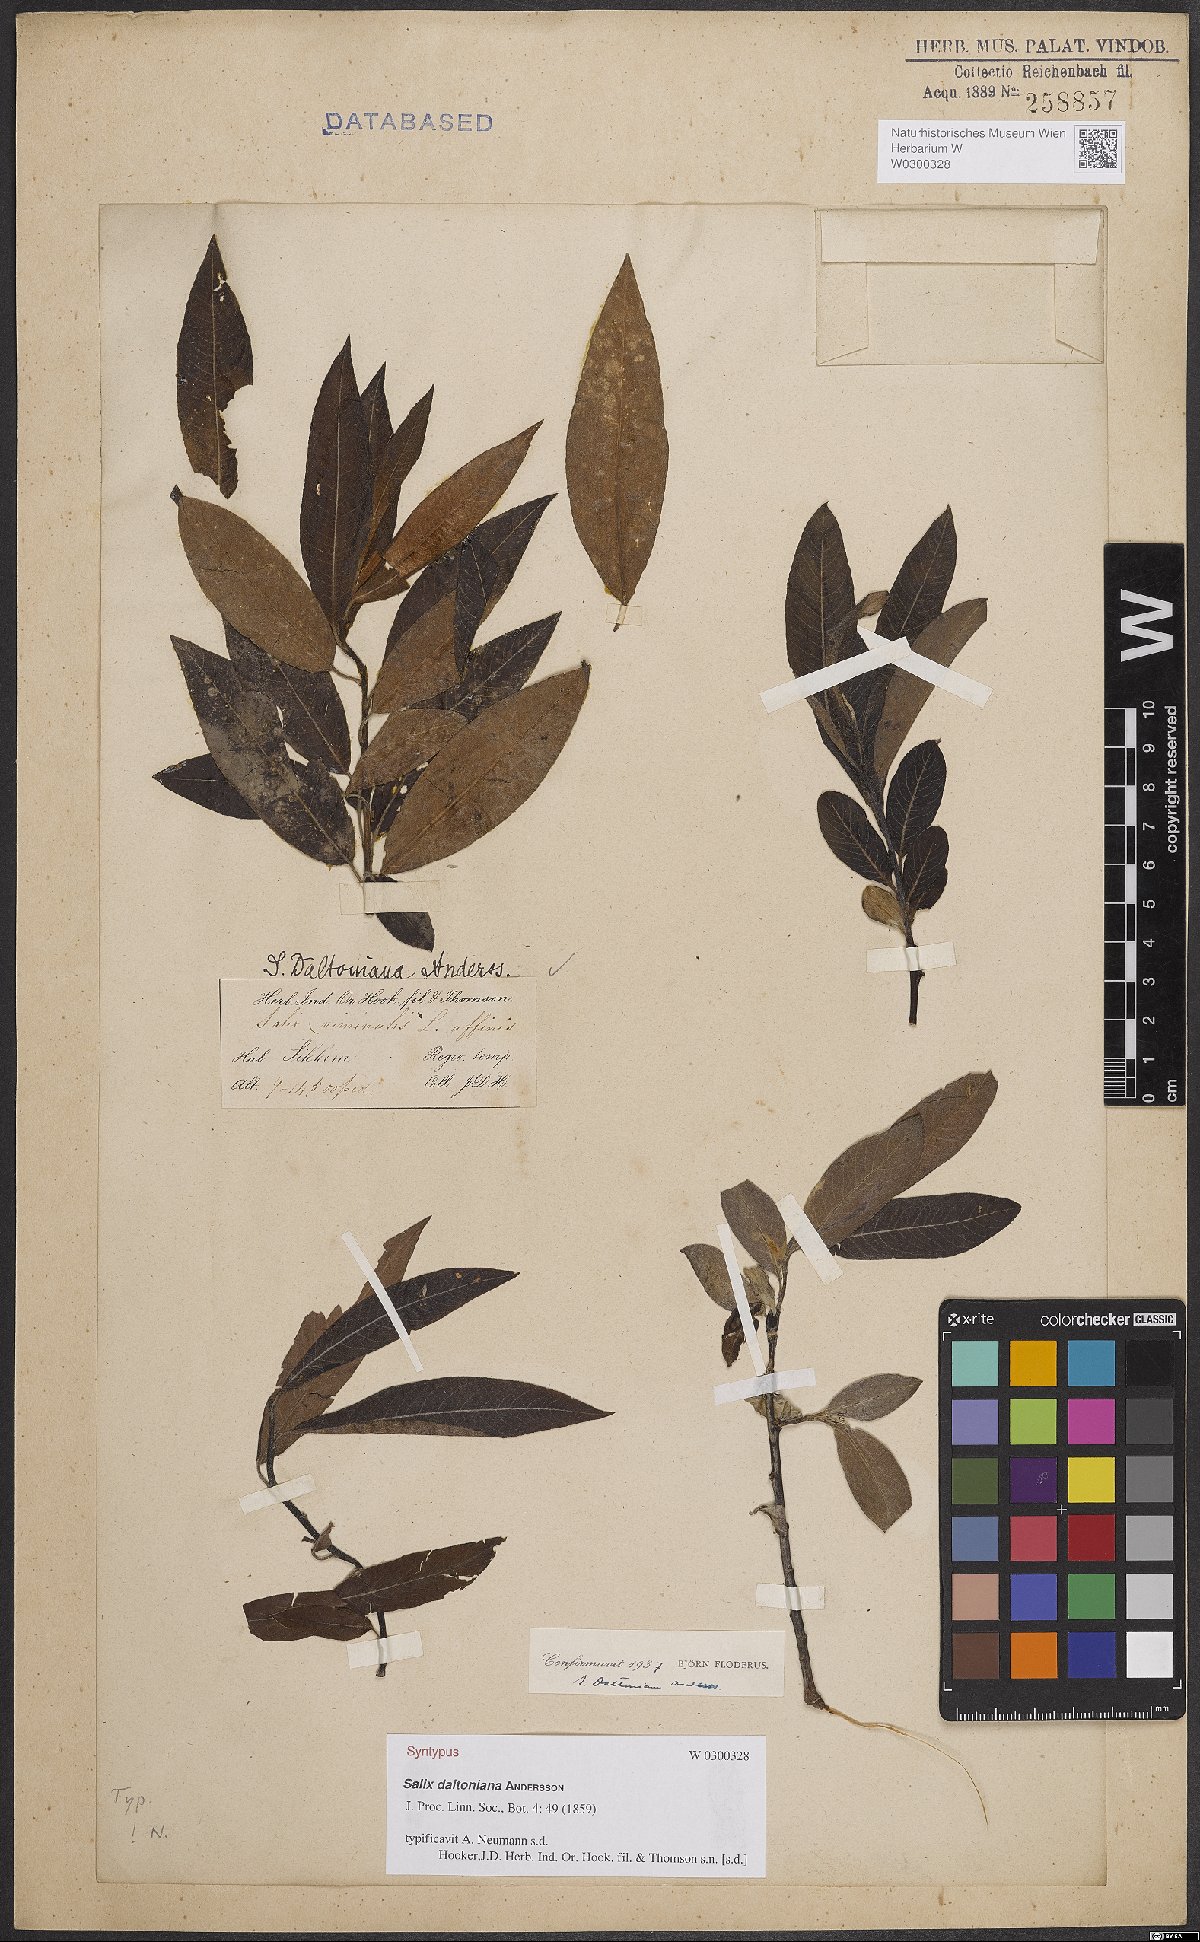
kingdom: Plantae
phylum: Tracheophyta
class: Magnoliopsida
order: Malpighiales
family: Salicaceae
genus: Salix
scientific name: Salix daltoniana
